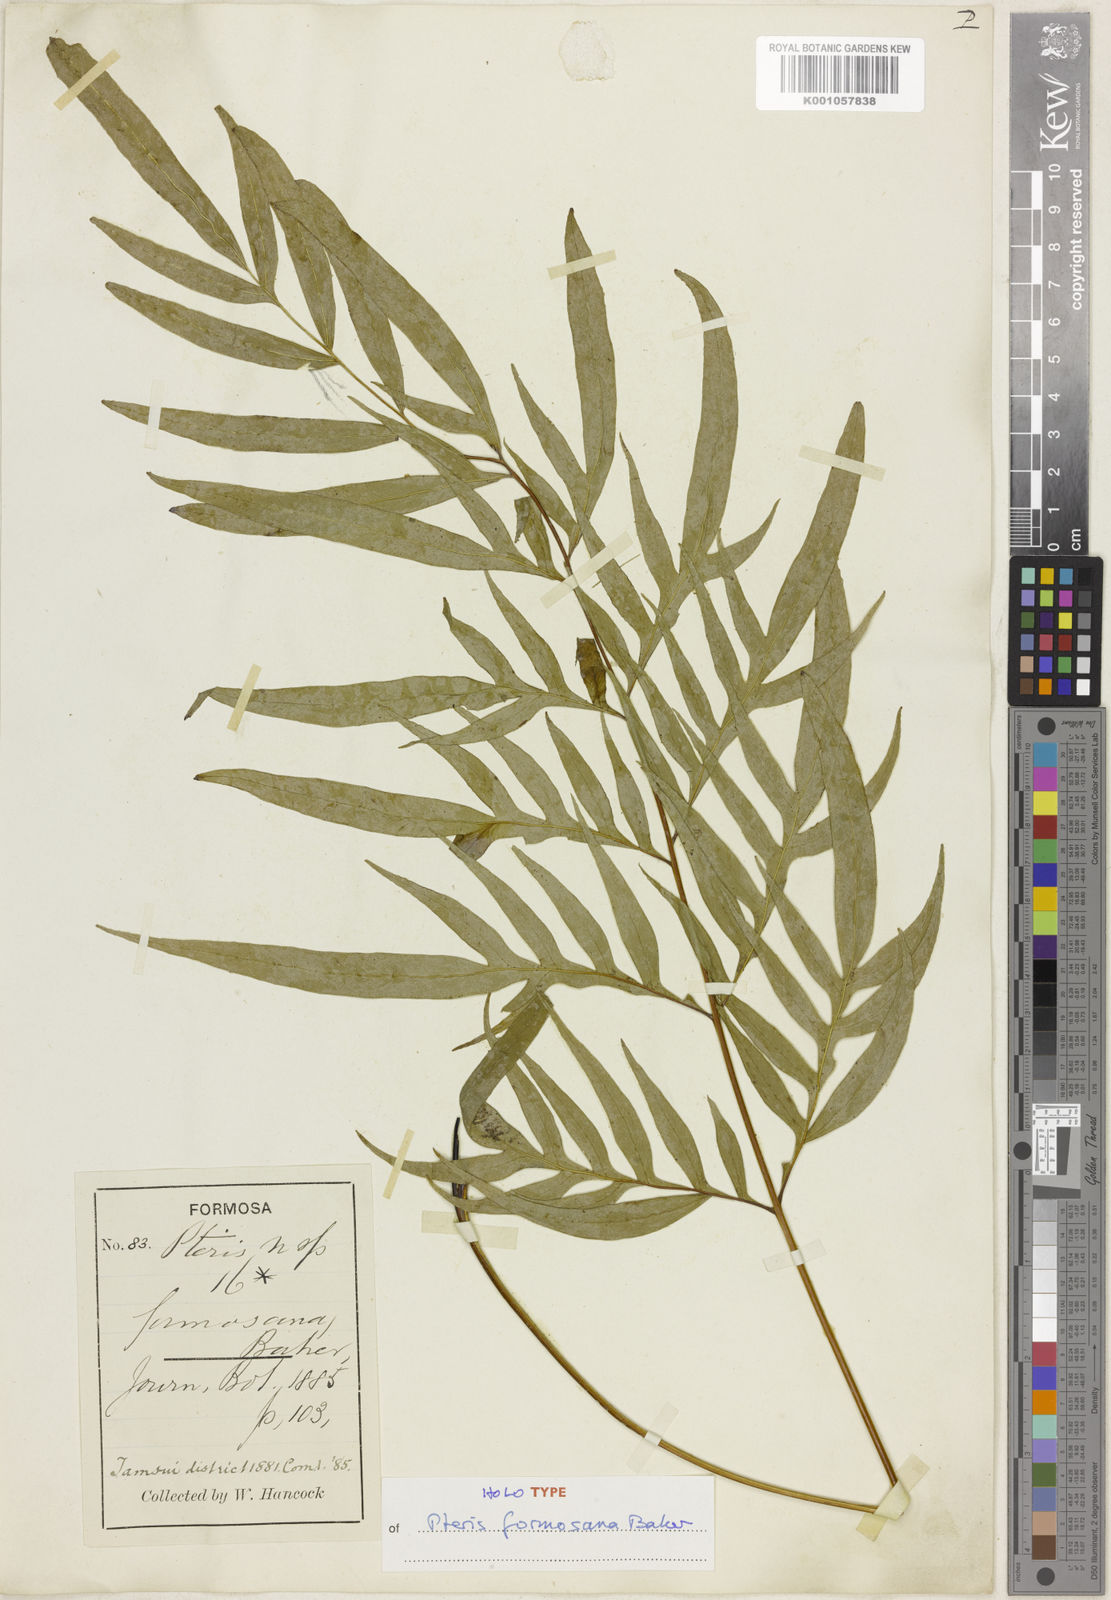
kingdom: Plantae
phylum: Tracheophyta
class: Polypodiopsida
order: Polypodiales
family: Pteridaceae
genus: Pteris
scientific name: Pteris formosana
